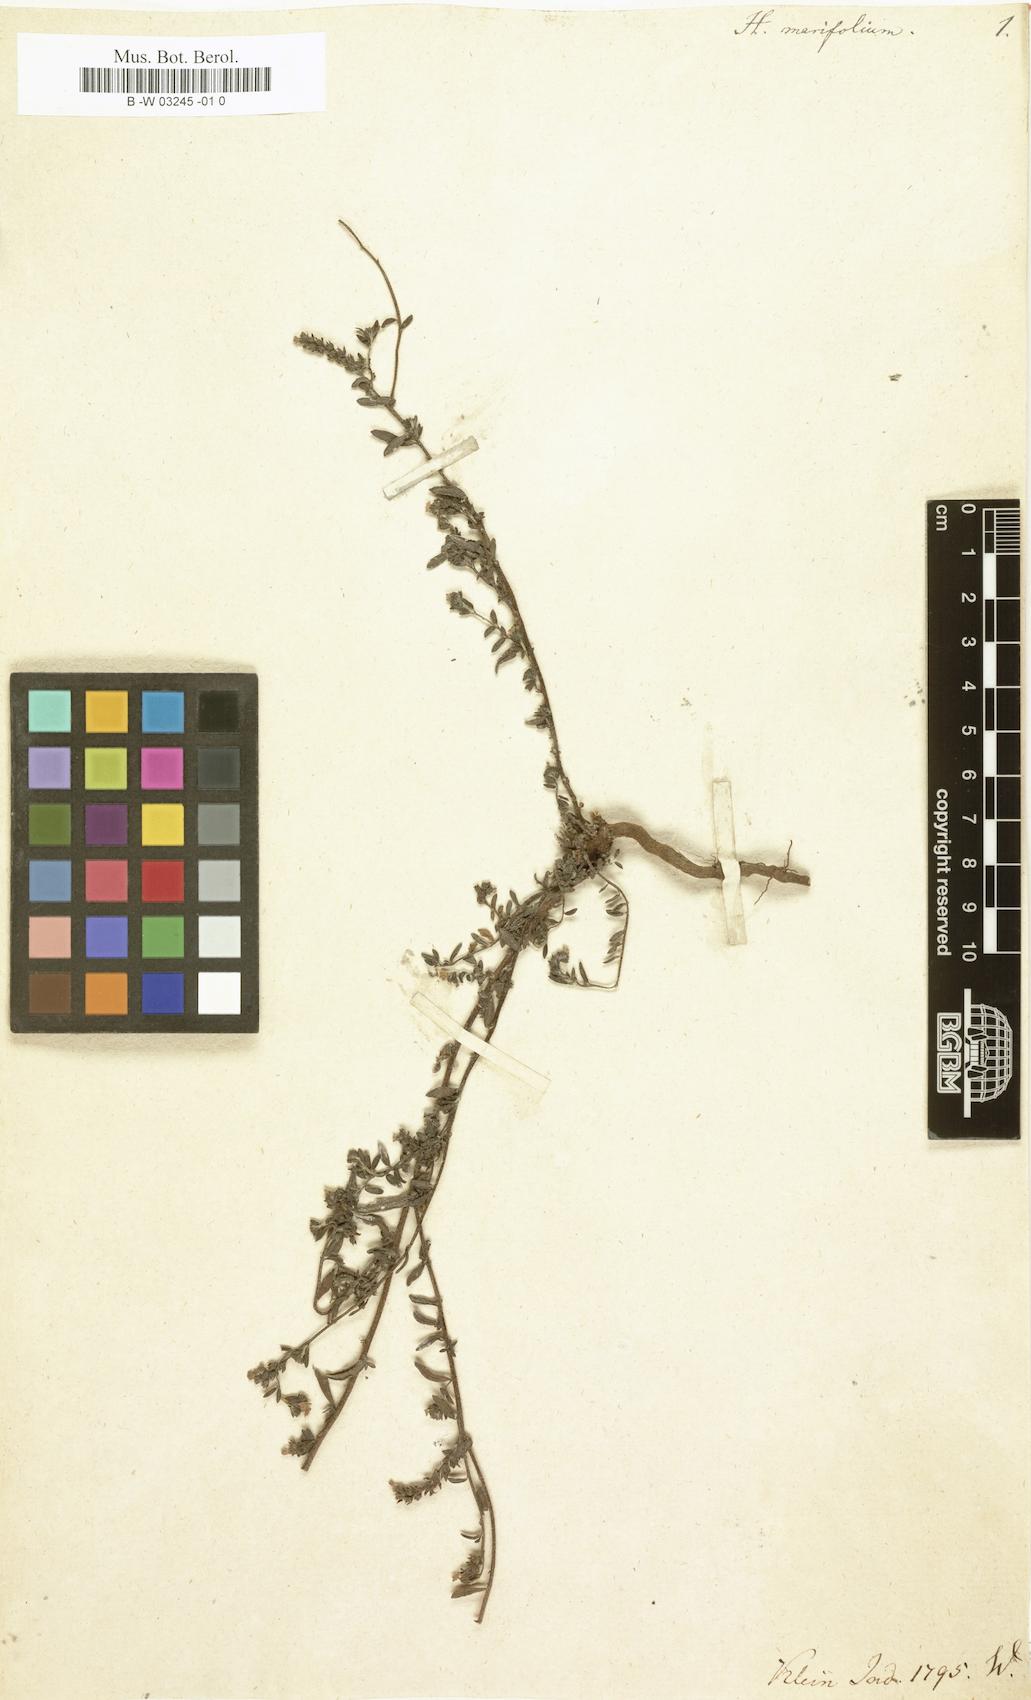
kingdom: Plantae
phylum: Tracheophyta
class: Magnoliopsida
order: Boraginales
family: Heliotropiaceae
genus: Euploca
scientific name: Euploca marifolia
